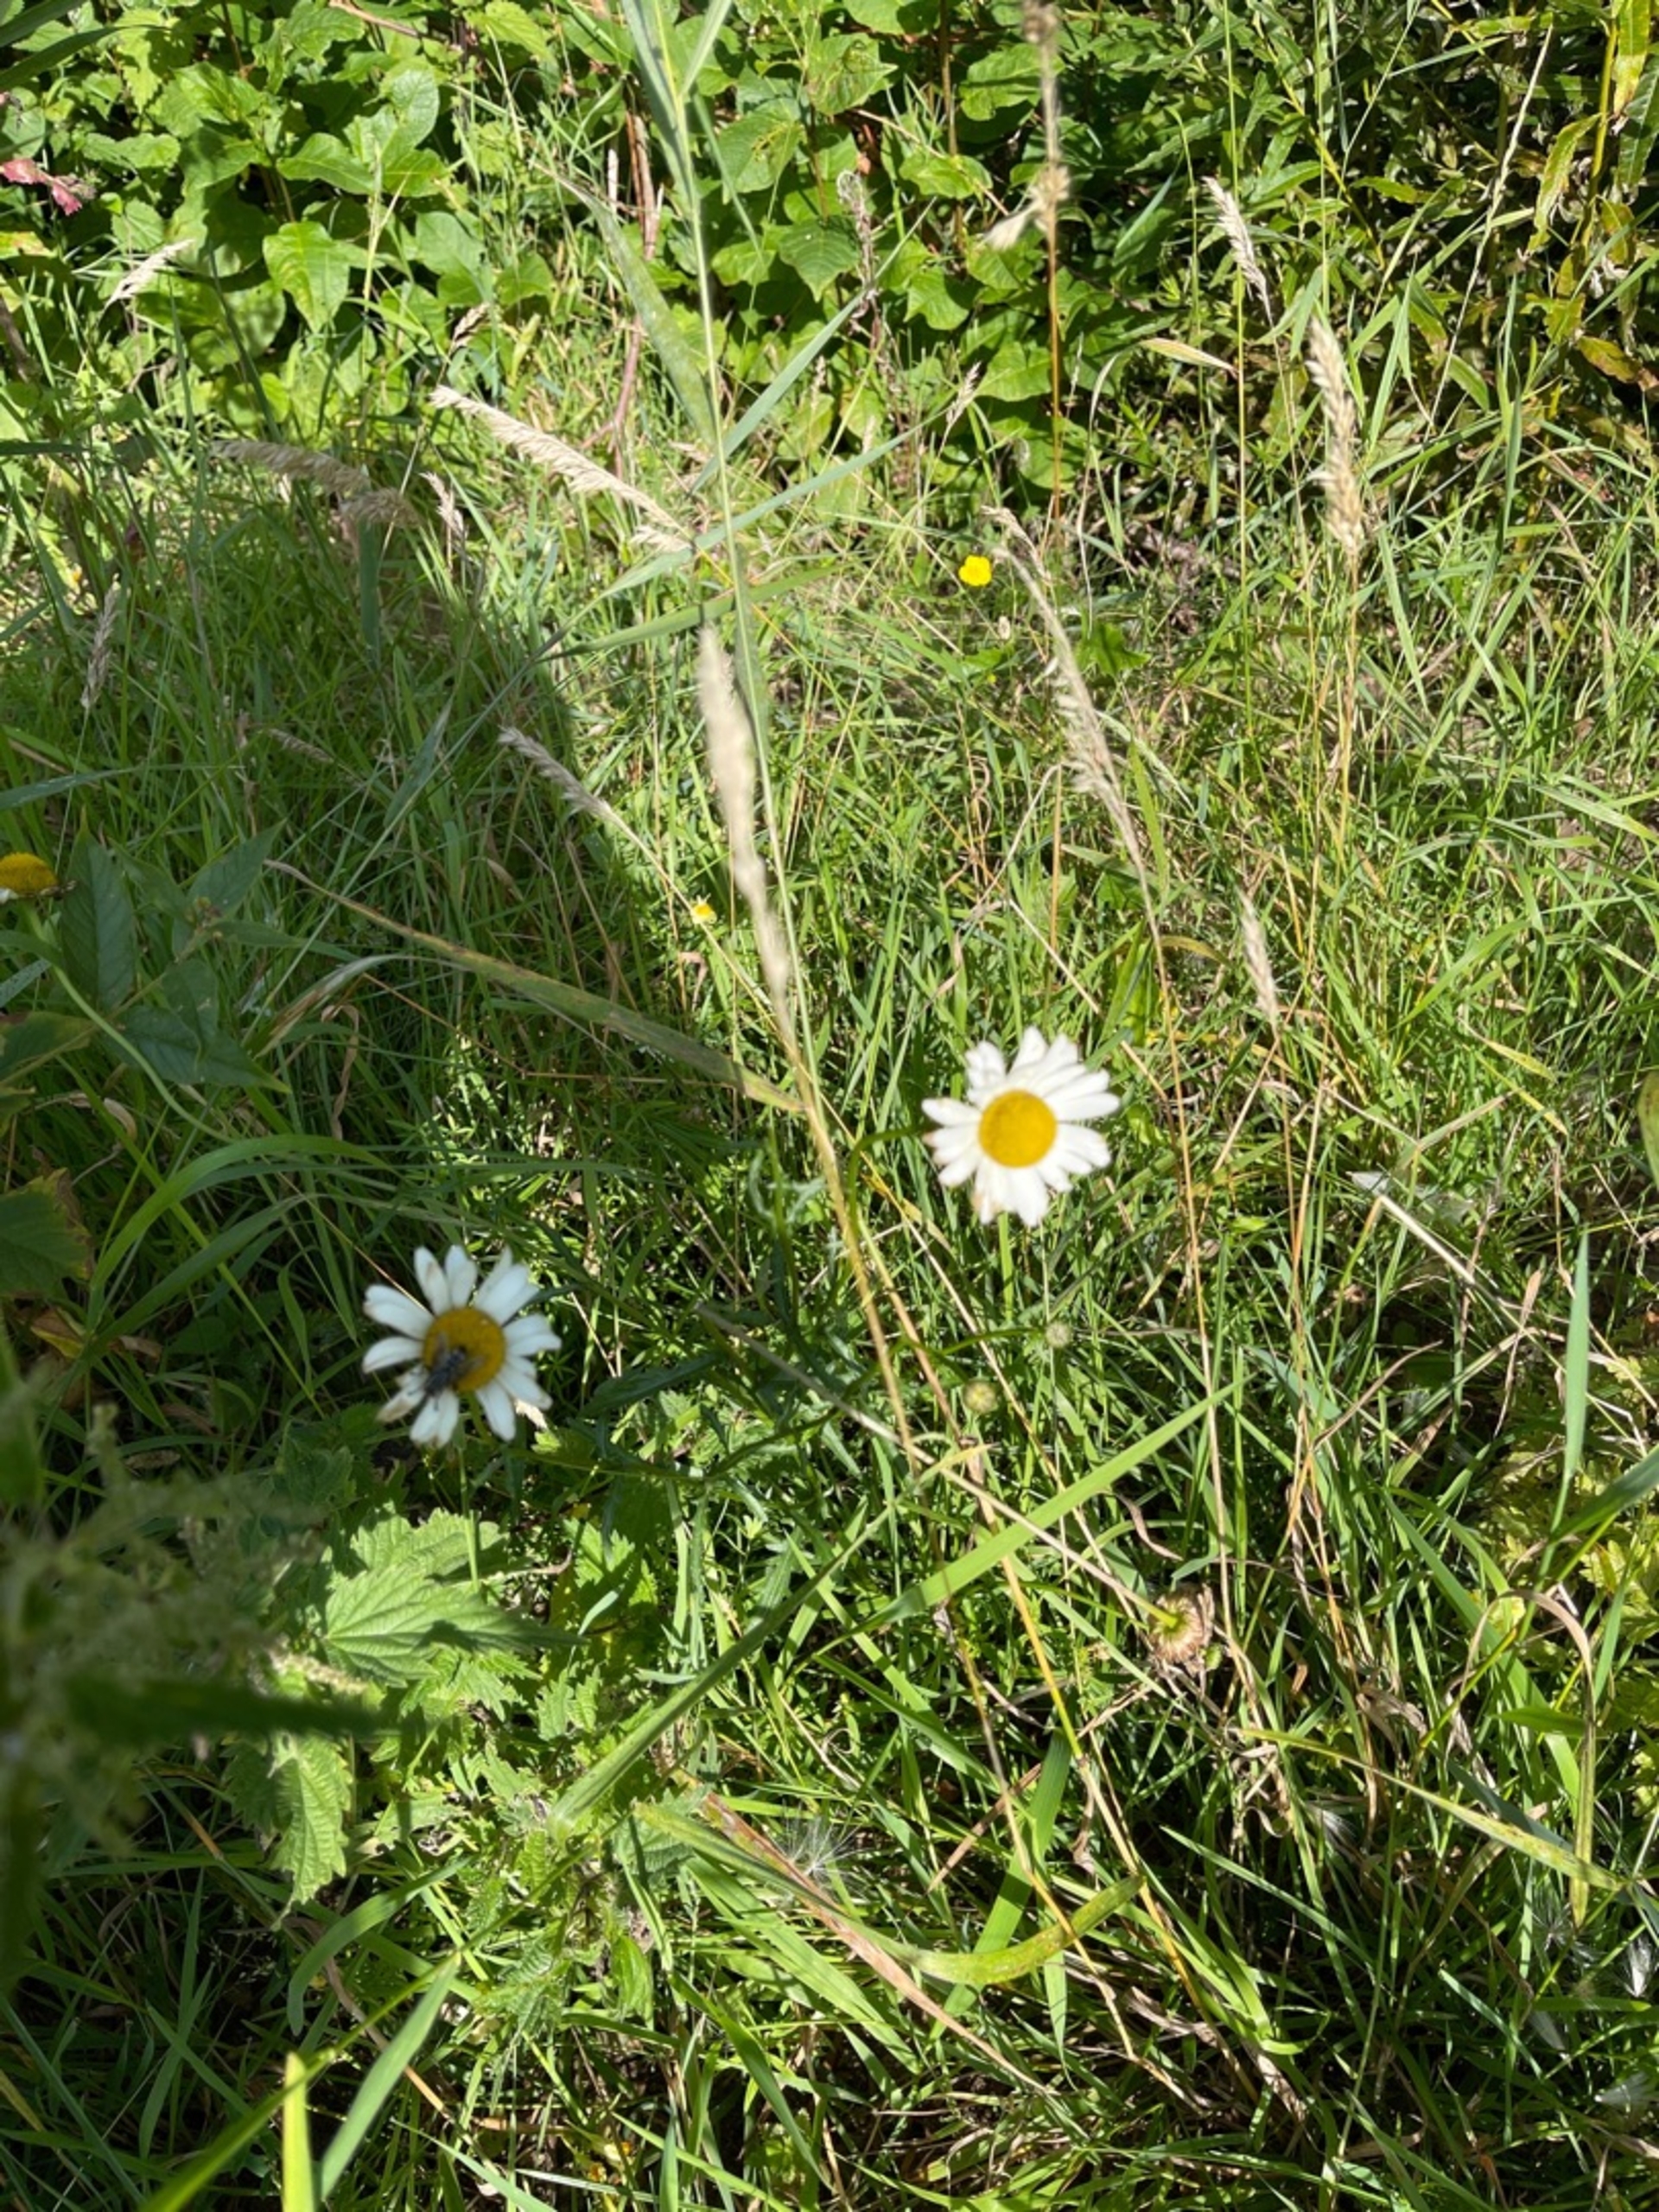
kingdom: Plantae
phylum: Tracheophyta
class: Magnoliopsida
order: Asterales
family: Asteraceae
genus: Leucanthemum
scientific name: Leucanthemum vulgare
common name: Hvid okseøje
